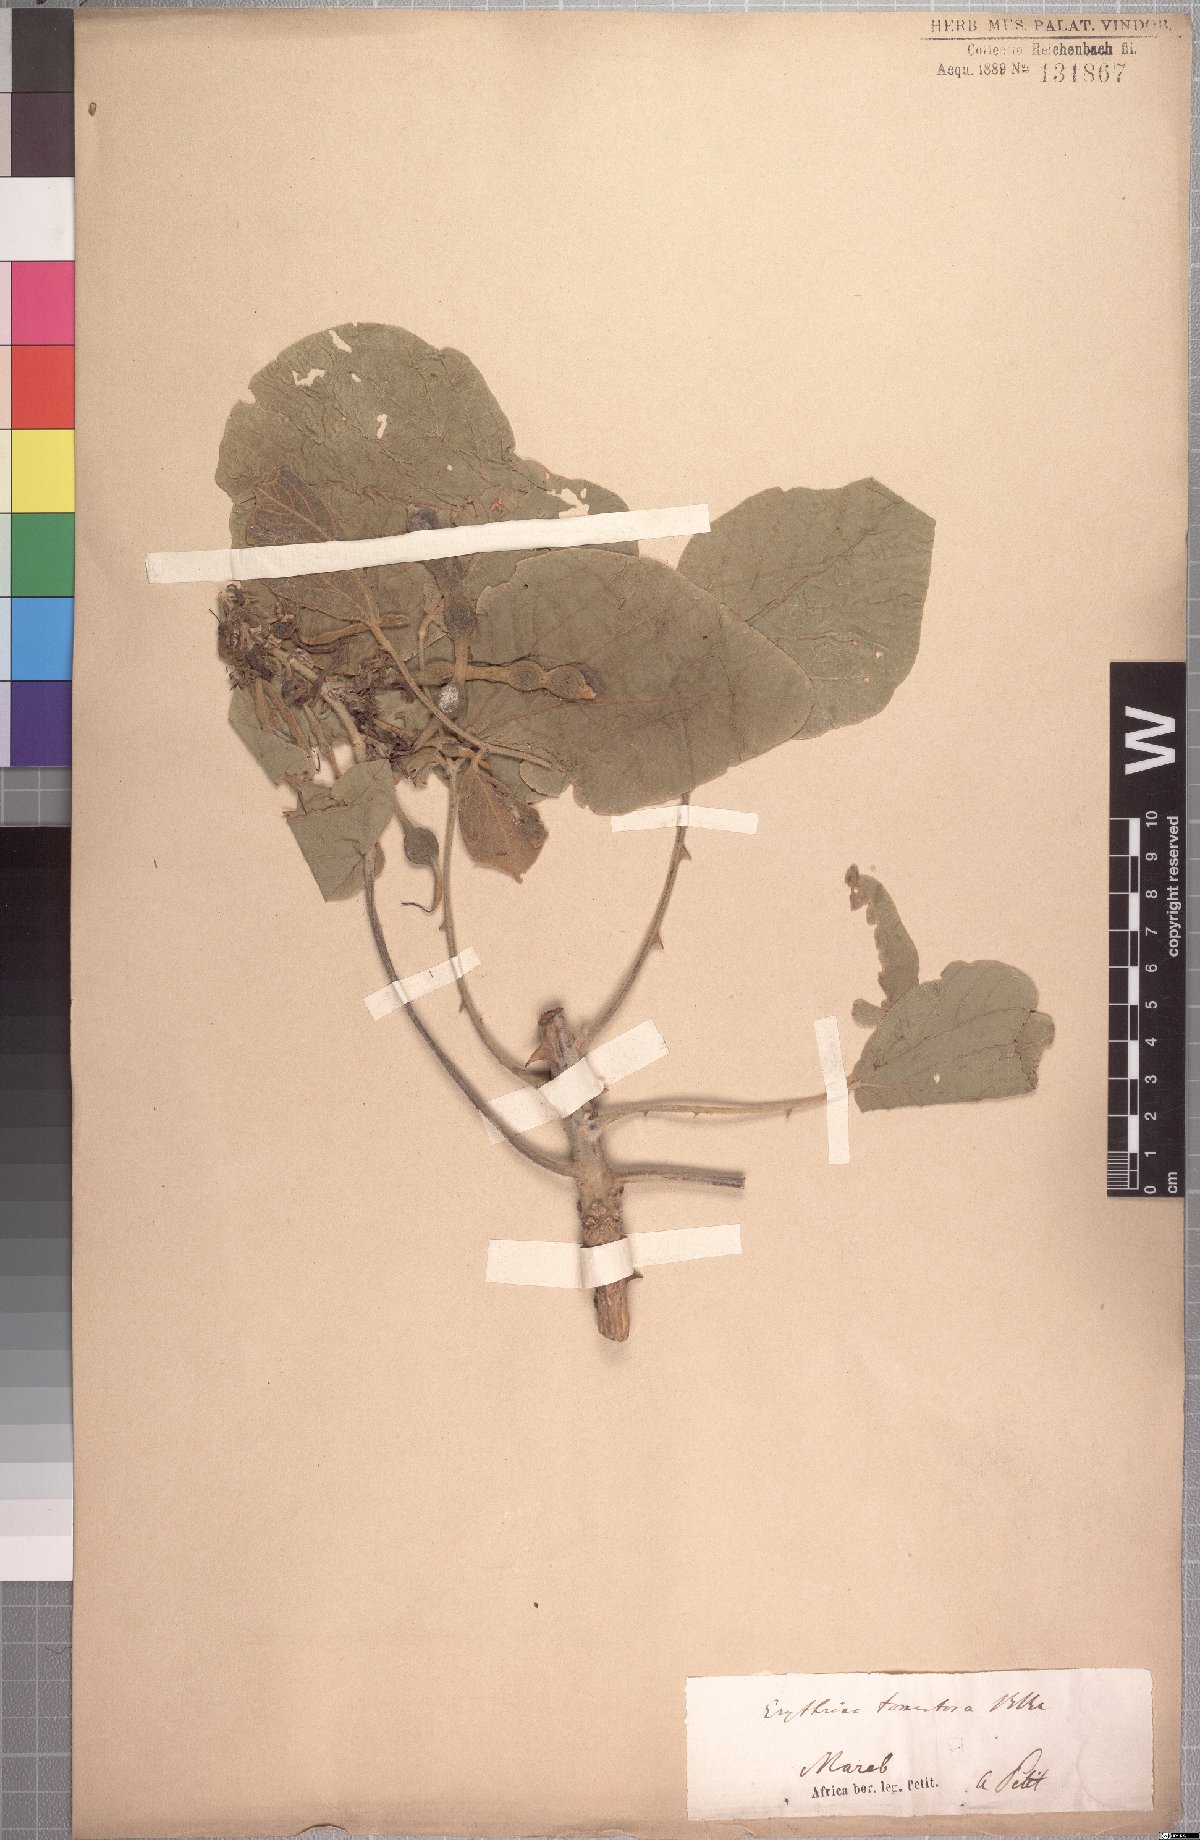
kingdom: Plantae
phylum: Tracheophyta
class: Magnoliopsida
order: Fabales
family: Fabaceae
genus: Erythrina
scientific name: Erythrina abyssinica
